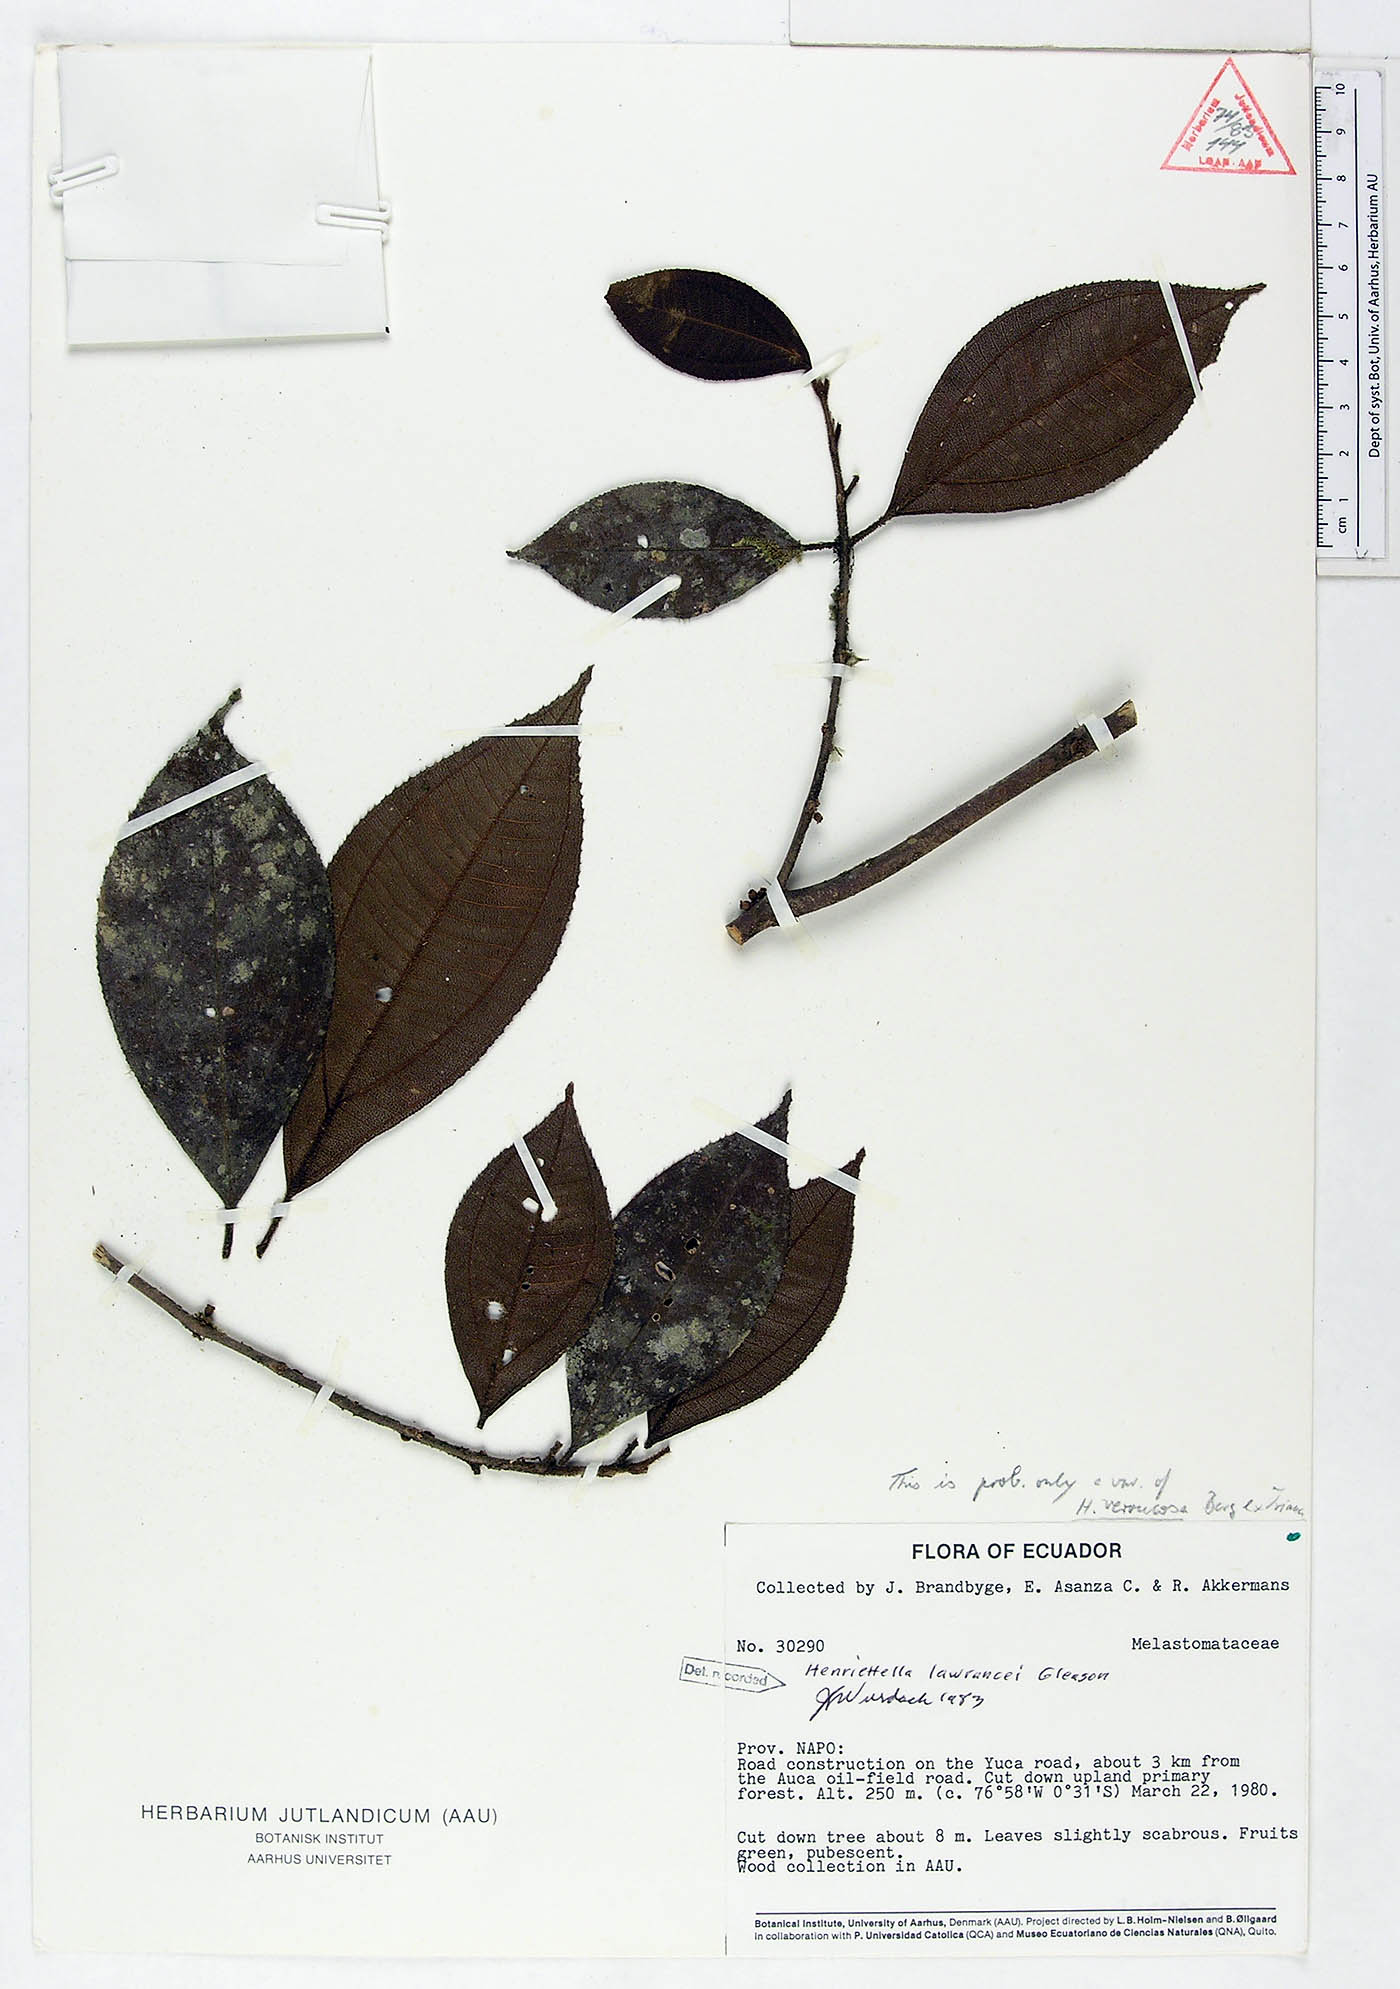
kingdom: Plantae
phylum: Tracheophyta
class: Magnoliopsida
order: Myrtales
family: Melastomataceae
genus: Henriettea
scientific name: Henriettea lawrancei
